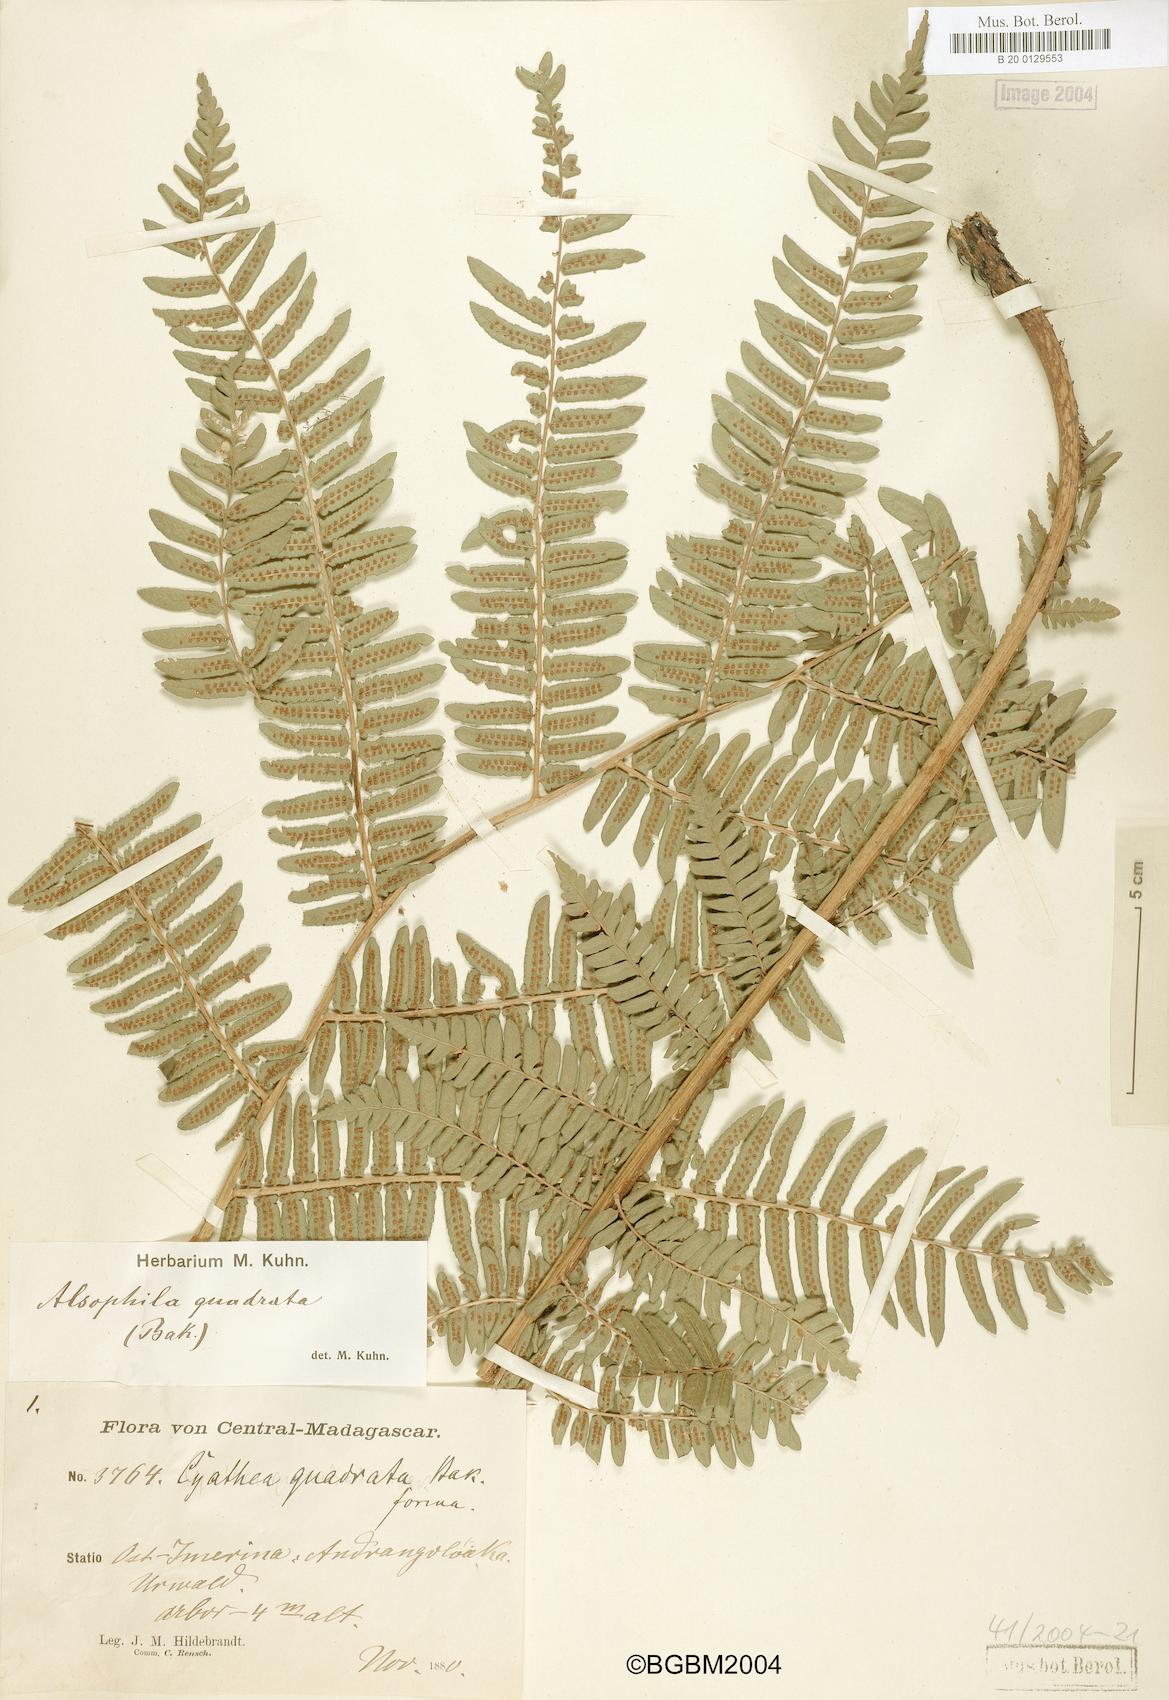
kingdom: Plantae
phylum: Tracheophyta
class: Polypodiopsida
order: Cyatheales
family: Cyatheaceae
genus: Alsophila
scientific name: Alsophila quadrata
